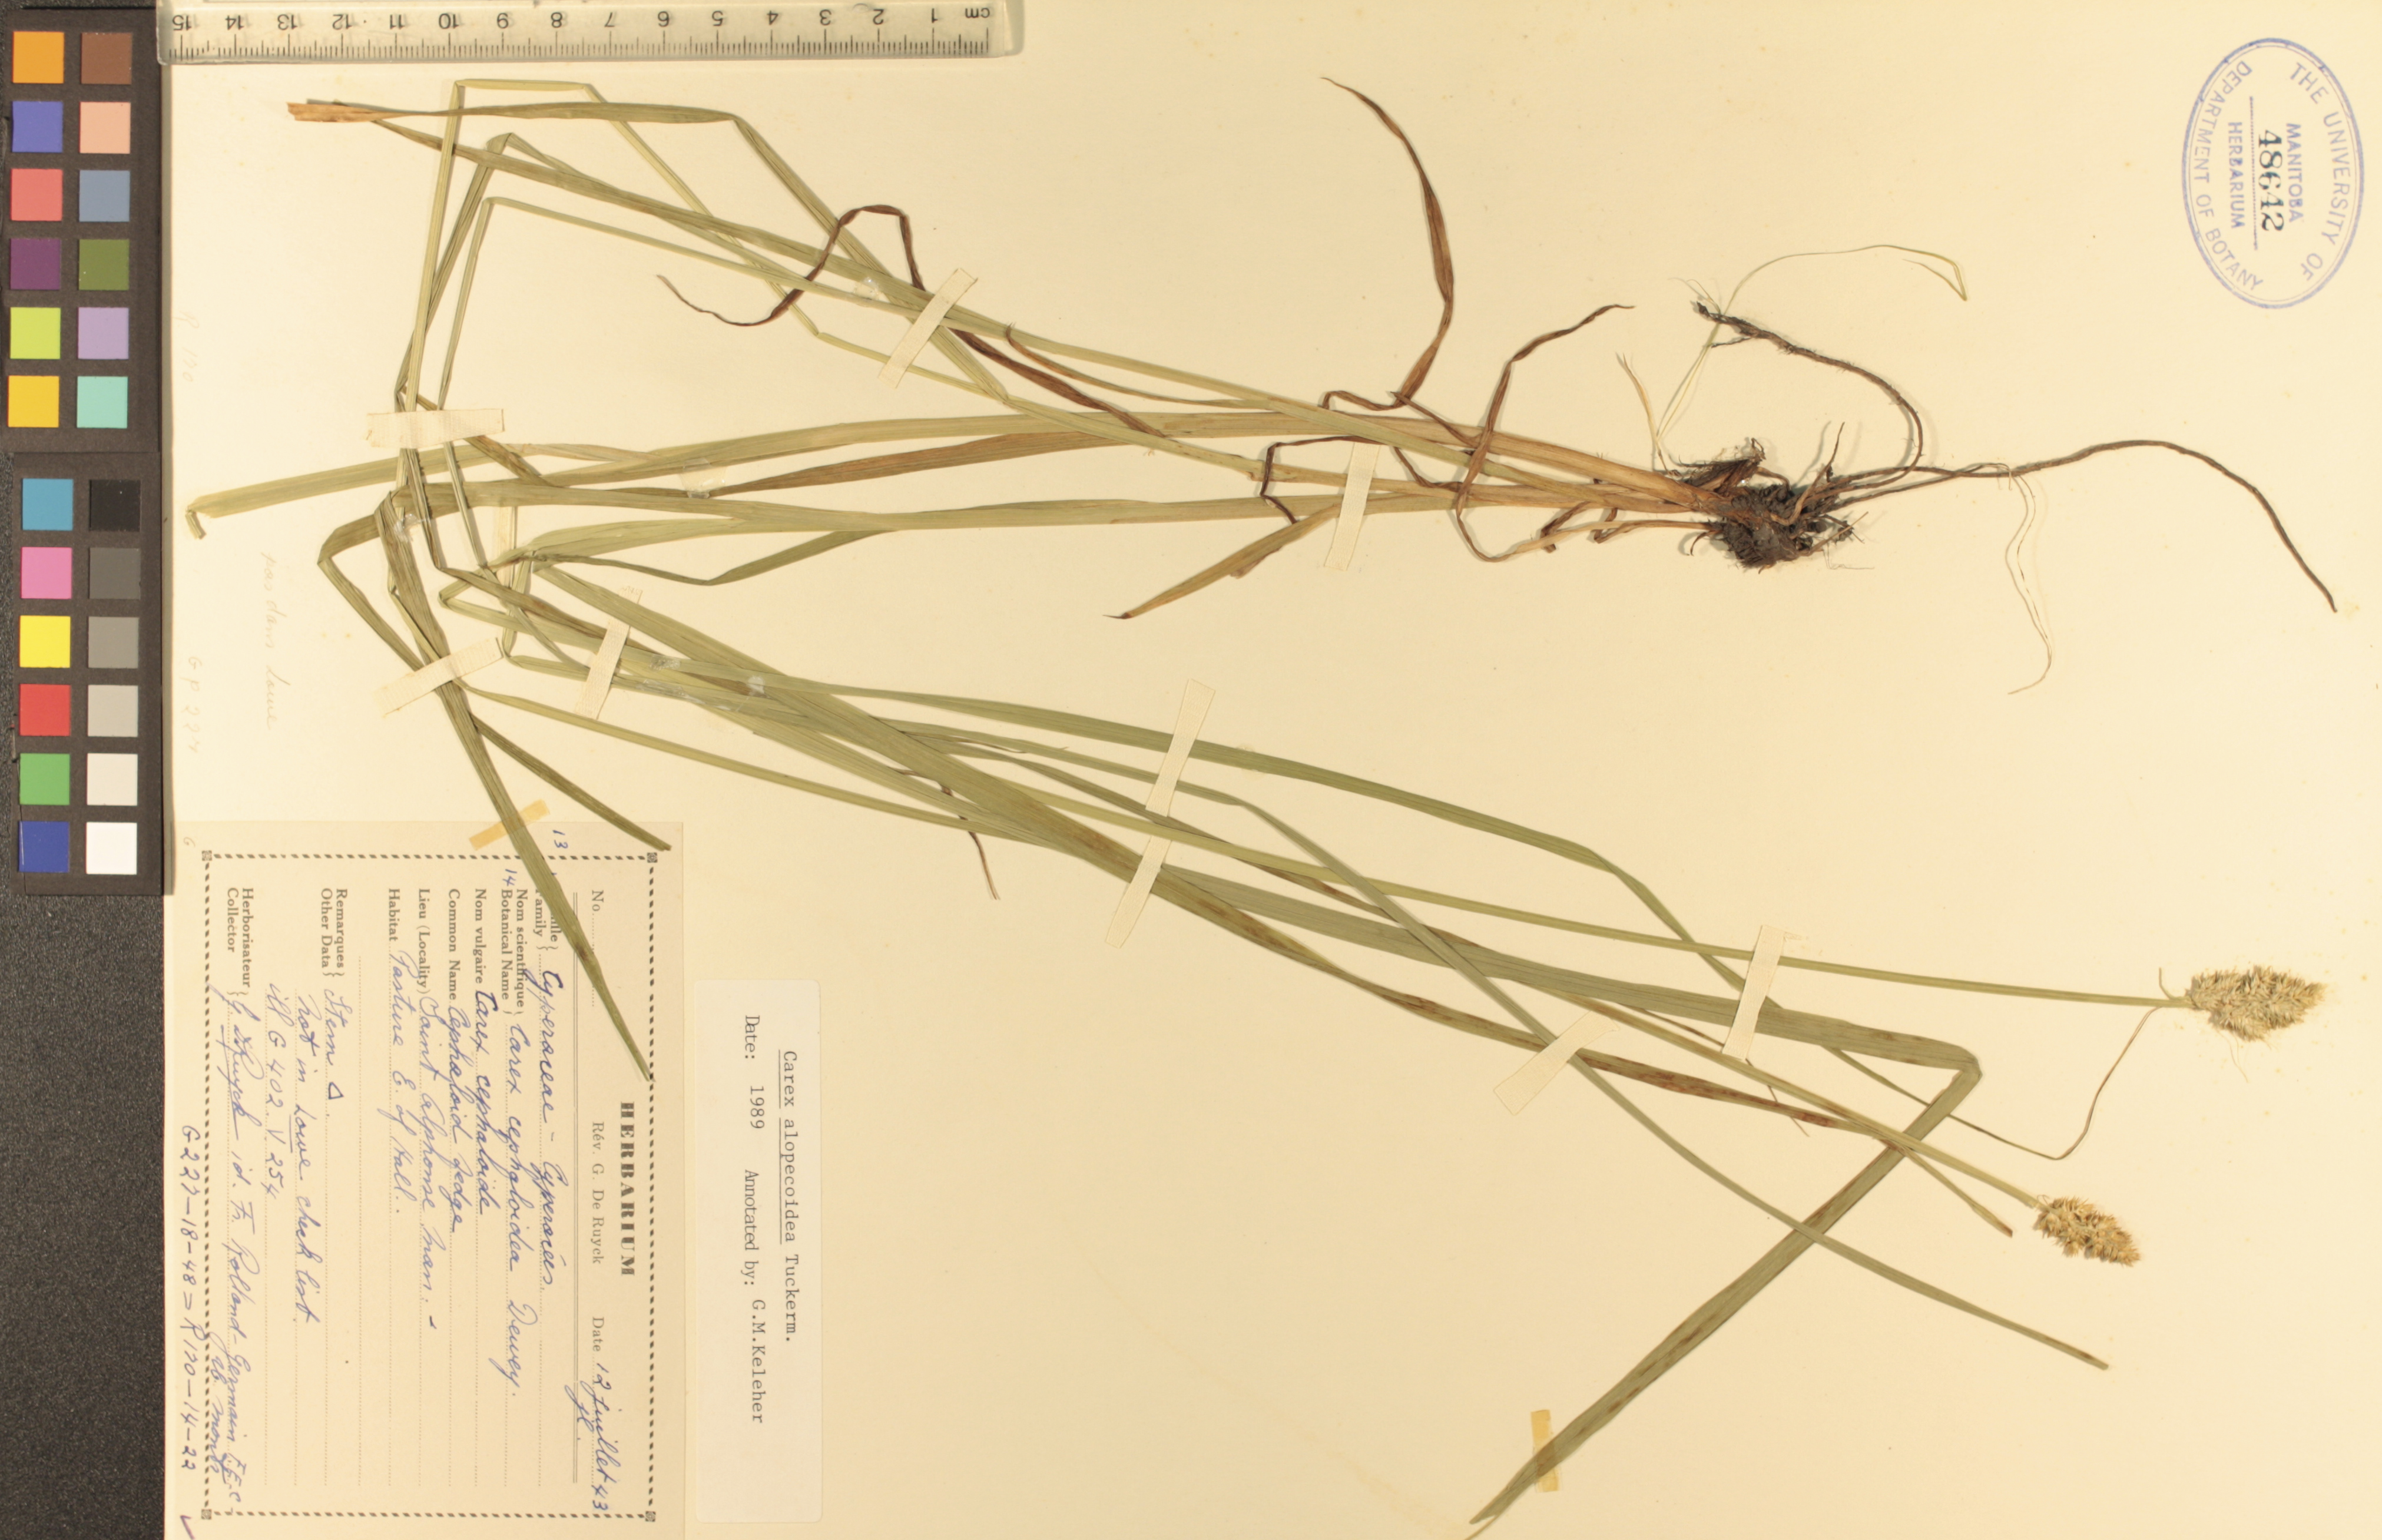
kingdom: Plantae
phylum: Tracheophyta
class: Liliopsida
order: Poales
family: Cyperaceae
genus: Carex
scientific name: Carex alopecoidea
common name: Brown-headed fox sedge
